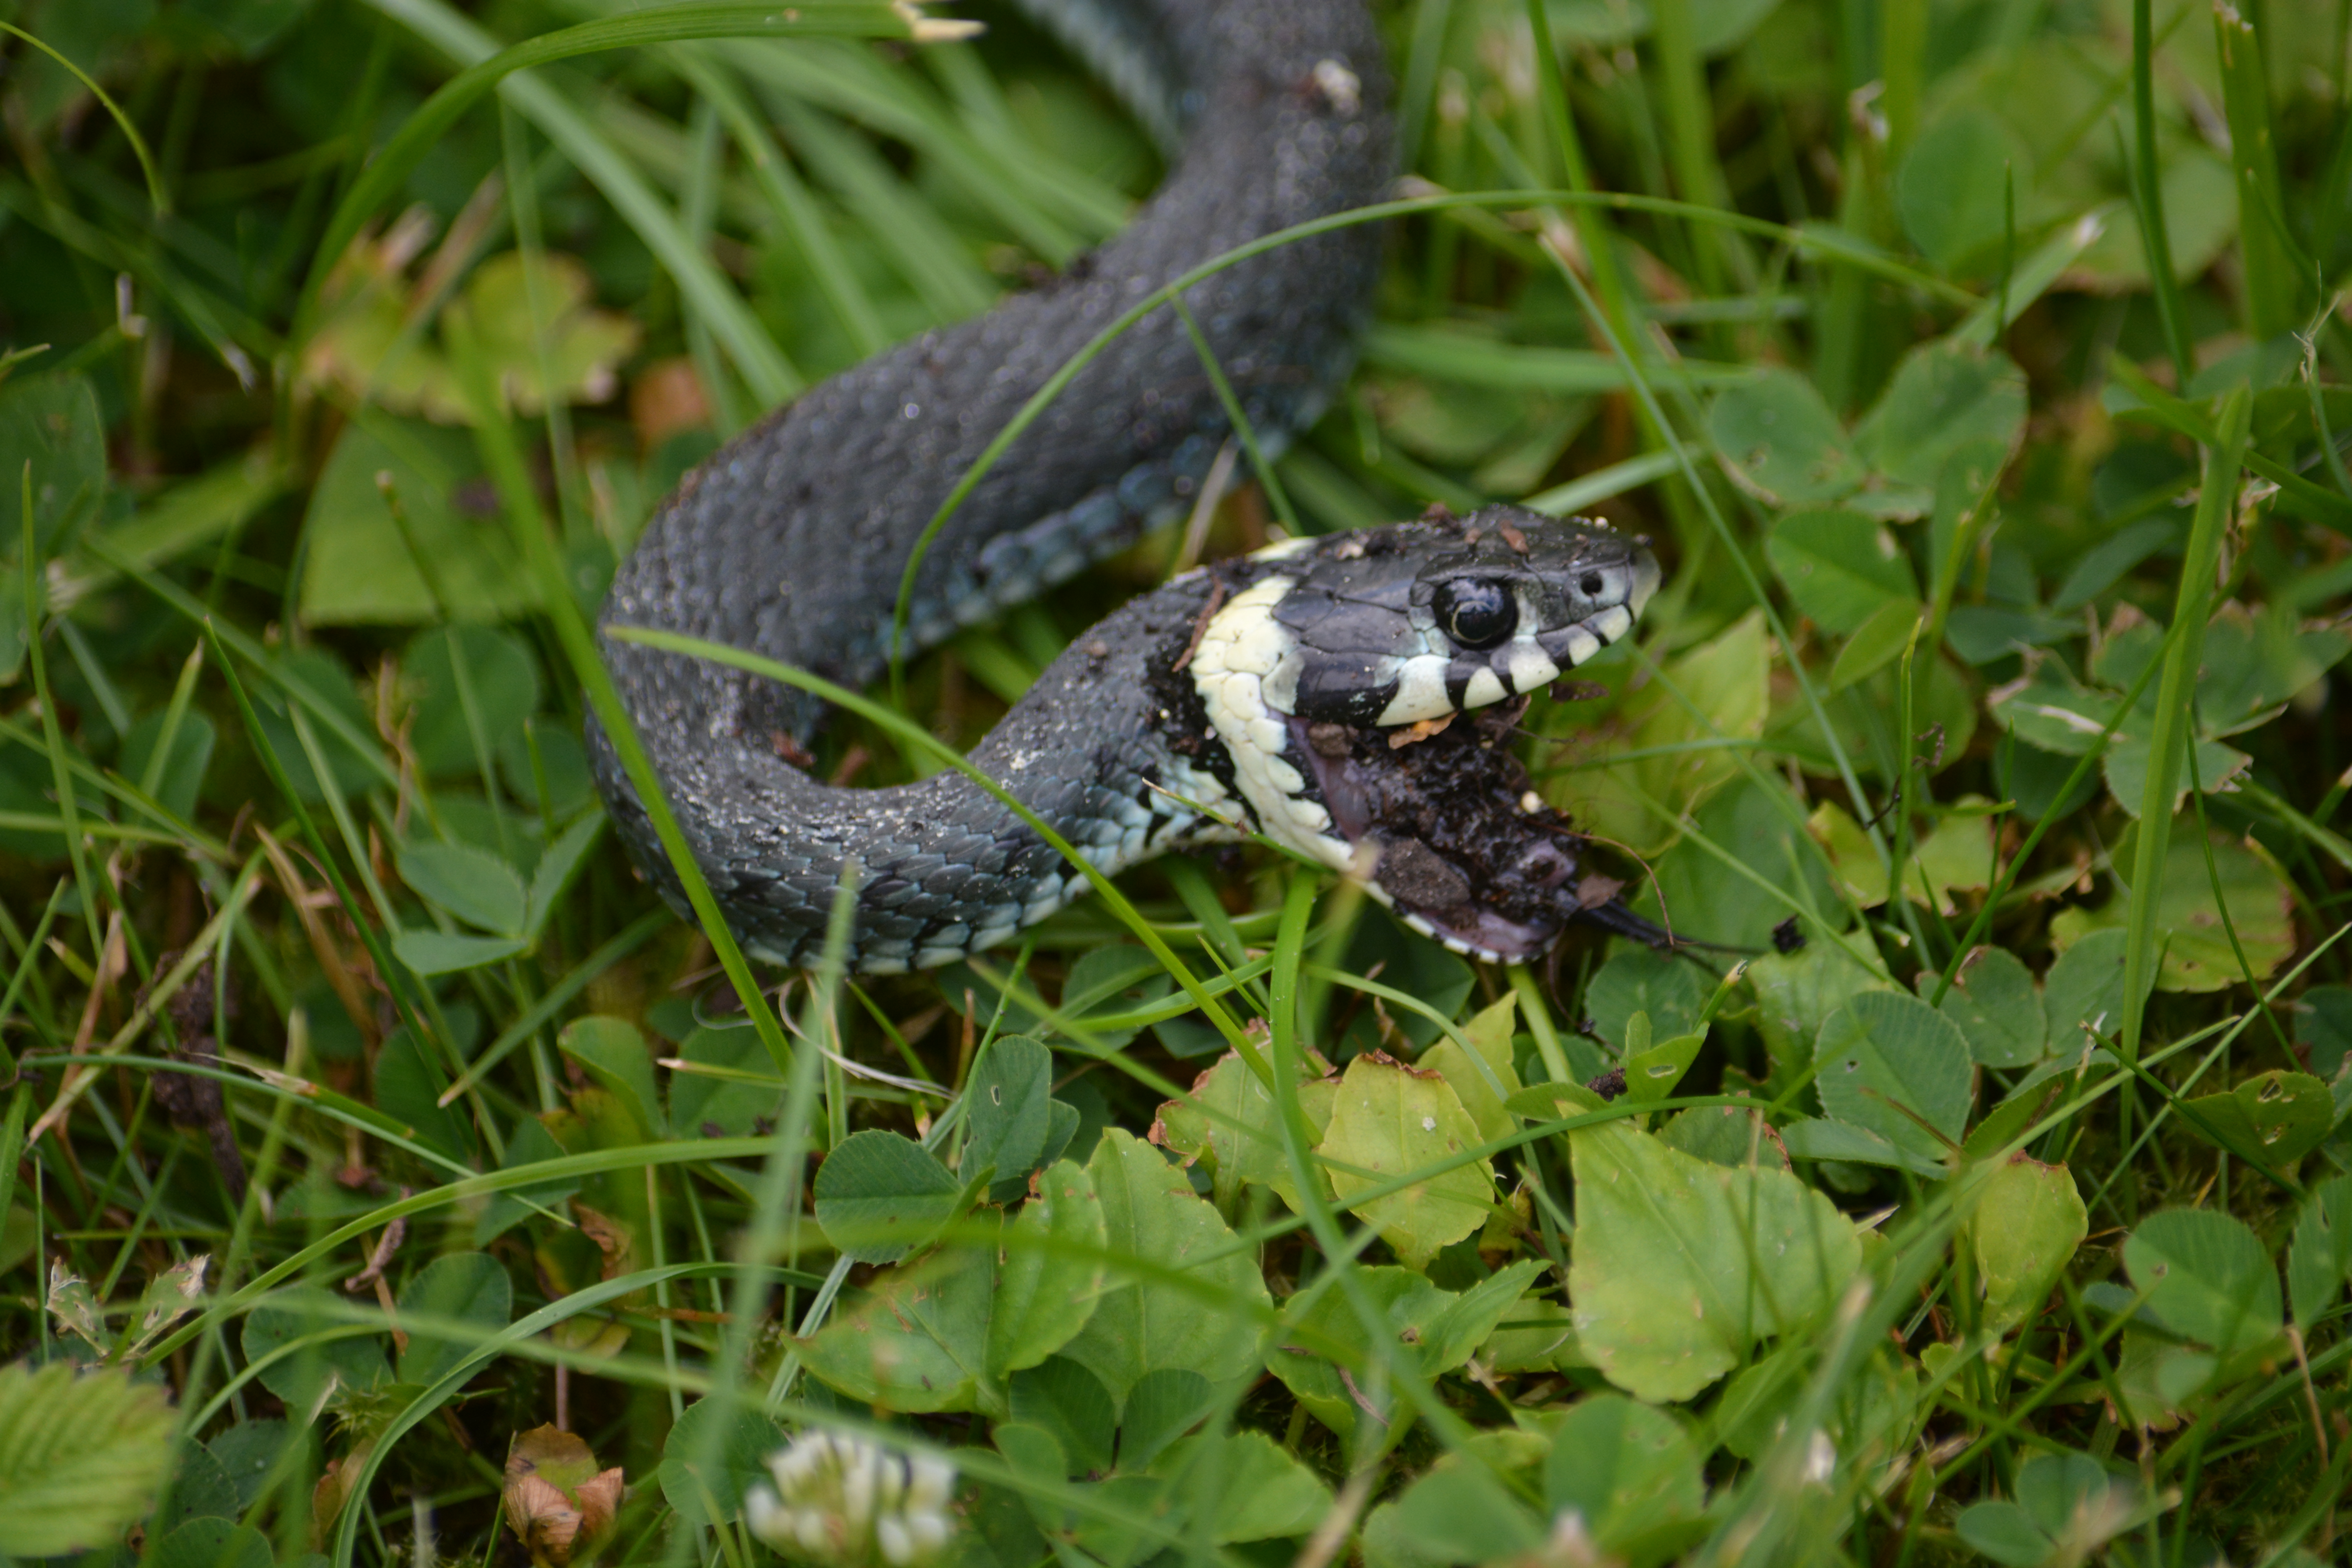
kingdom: Animalia
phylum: Chordata
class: Squamata
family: Colubridae
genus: Natrix
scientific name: Natrix natrix
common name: Snog
